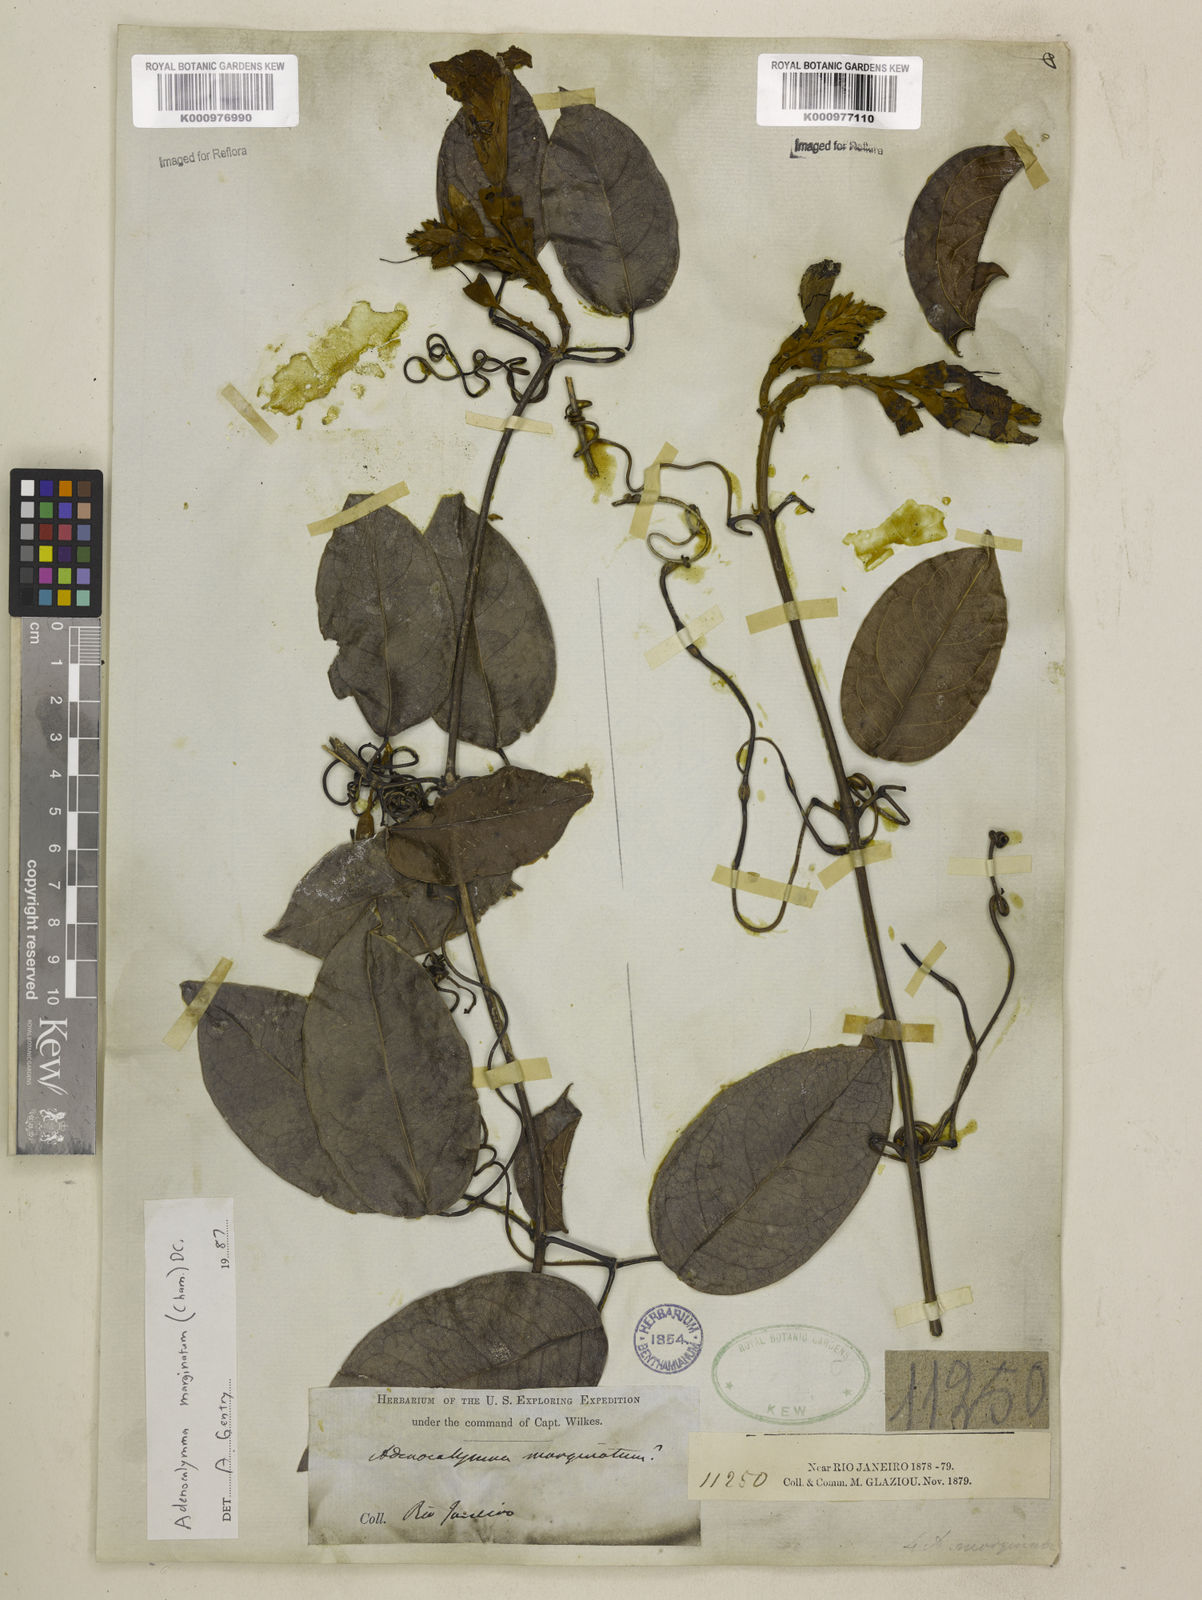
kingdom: Plantae
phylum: Tracheophyta
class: Magnoliopsida
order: Lamiales
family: Bignoniaceae
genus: Adenocalymma
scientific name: Adenocalymma marginatum
